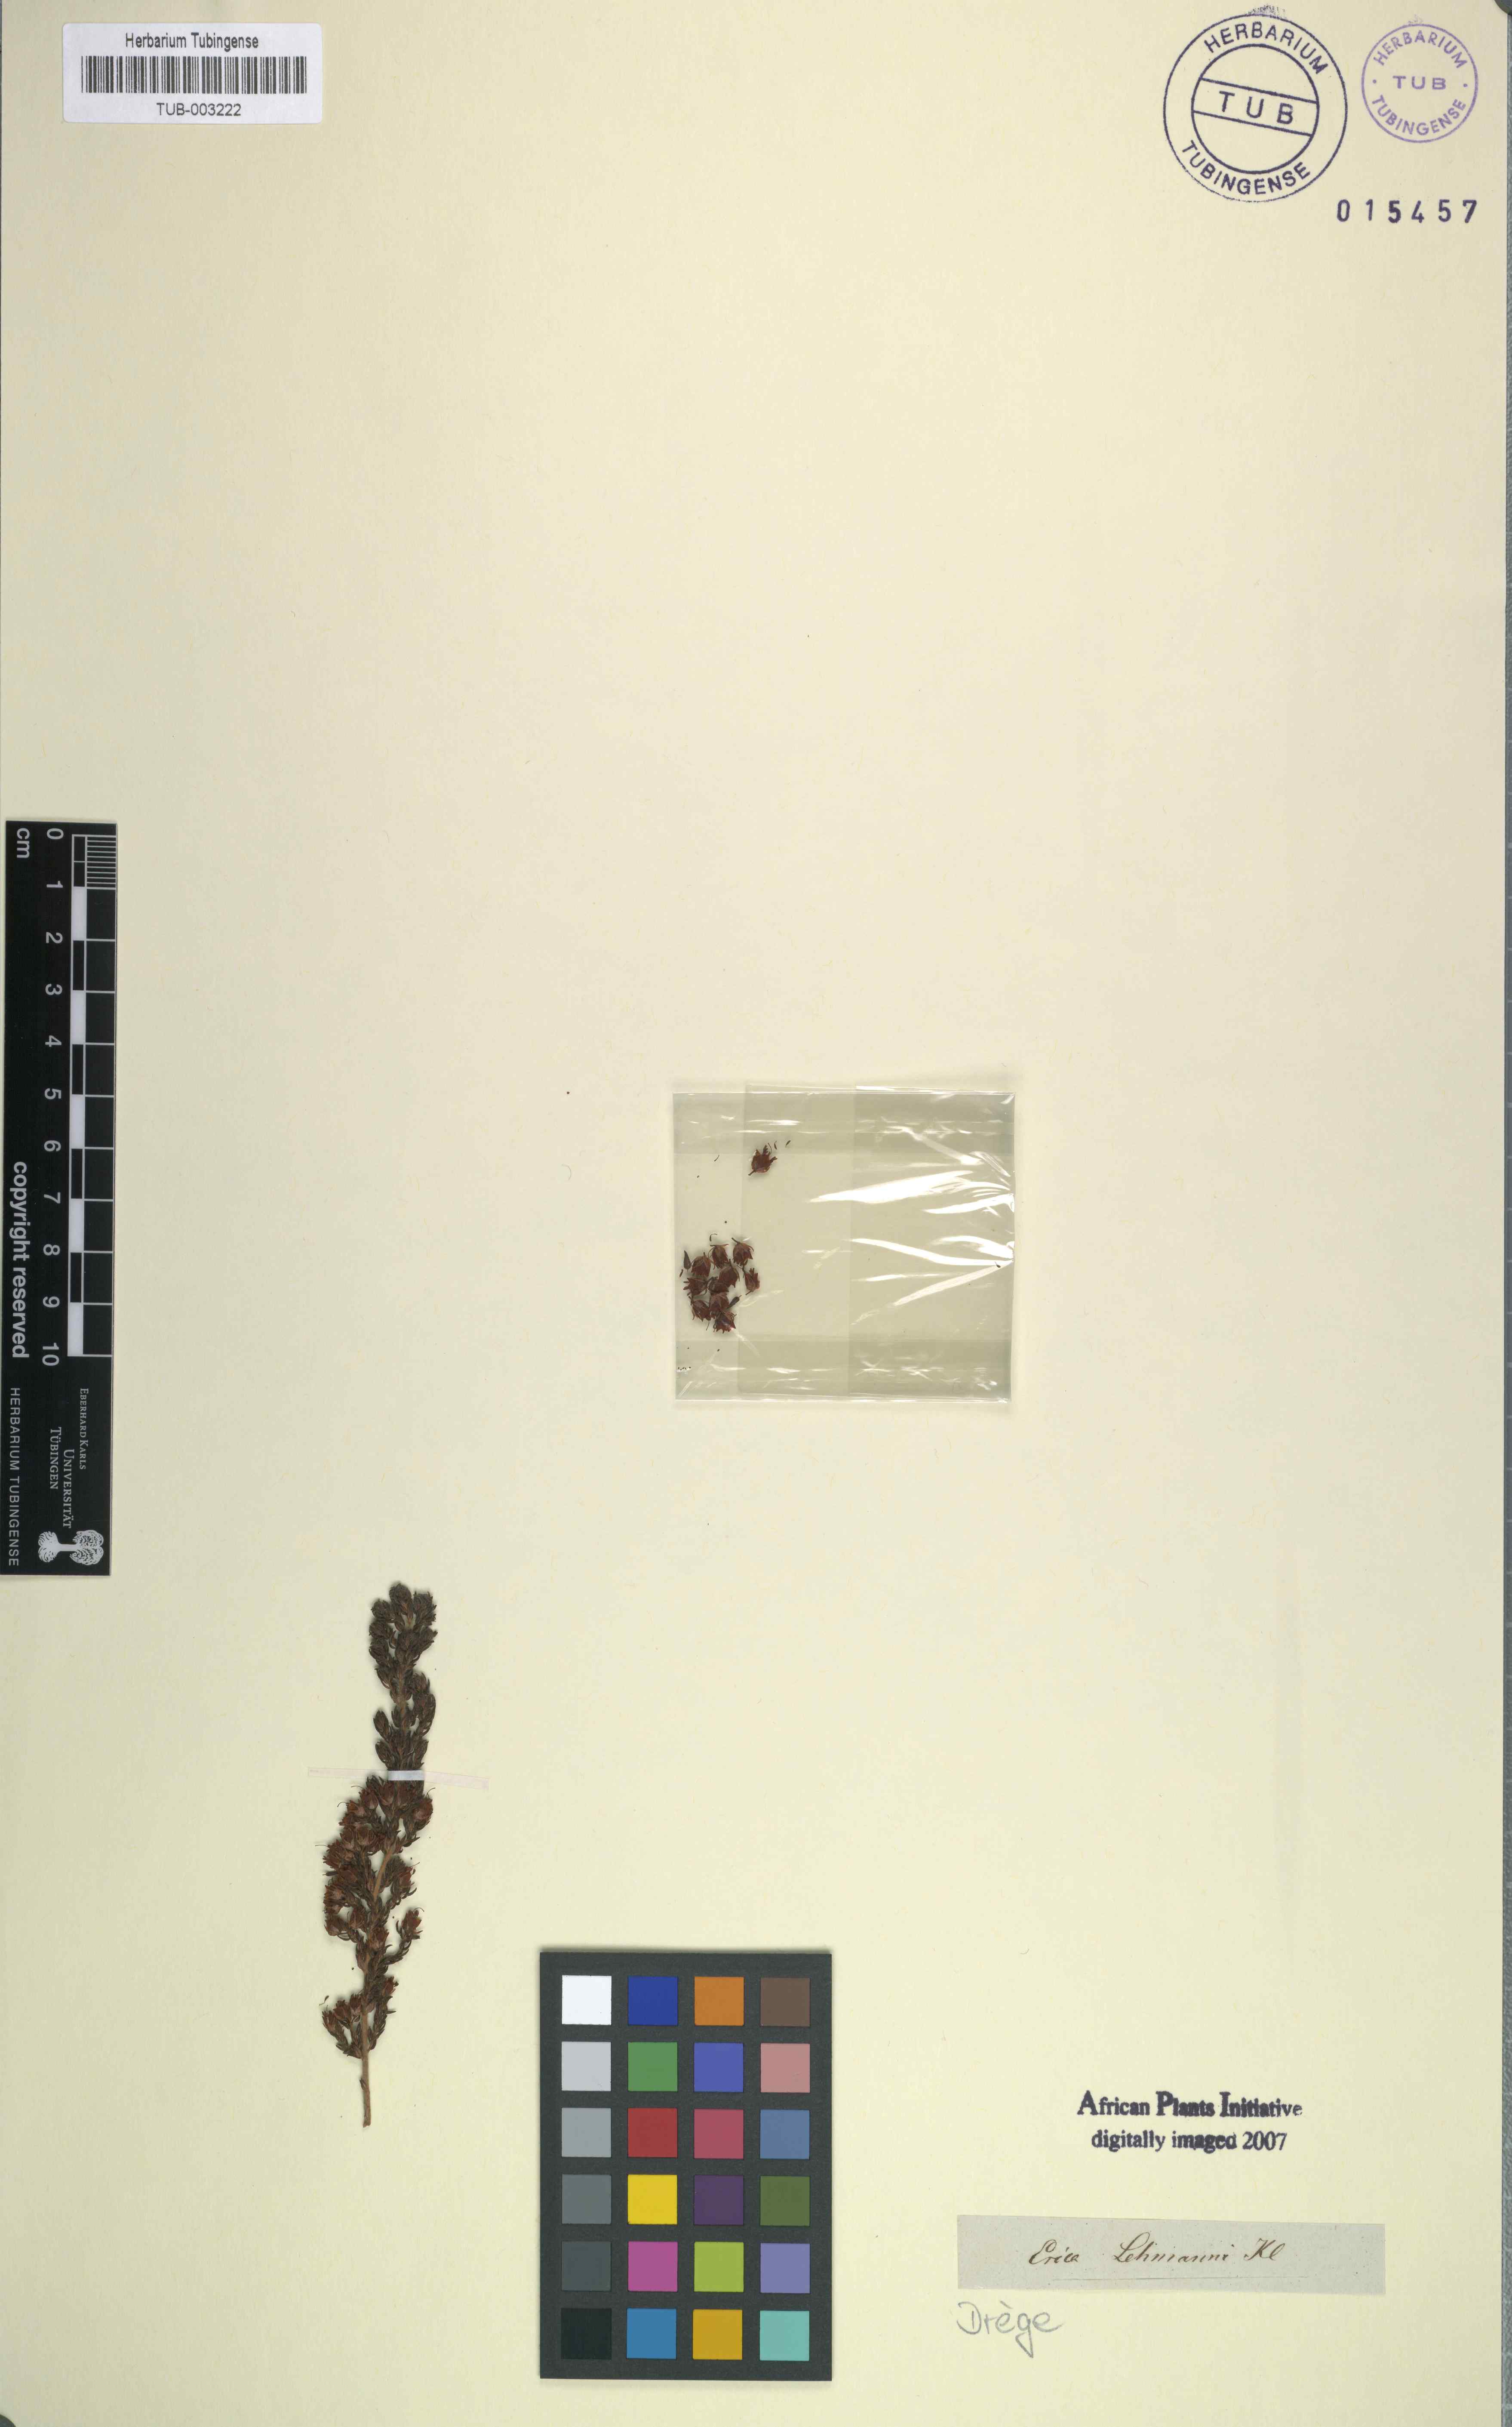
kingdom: Plantae
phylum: Tracheophyta
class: Magnoliopsida
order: Ericales
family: Ericaceae
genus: Erica
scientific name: Erica lehmannii
